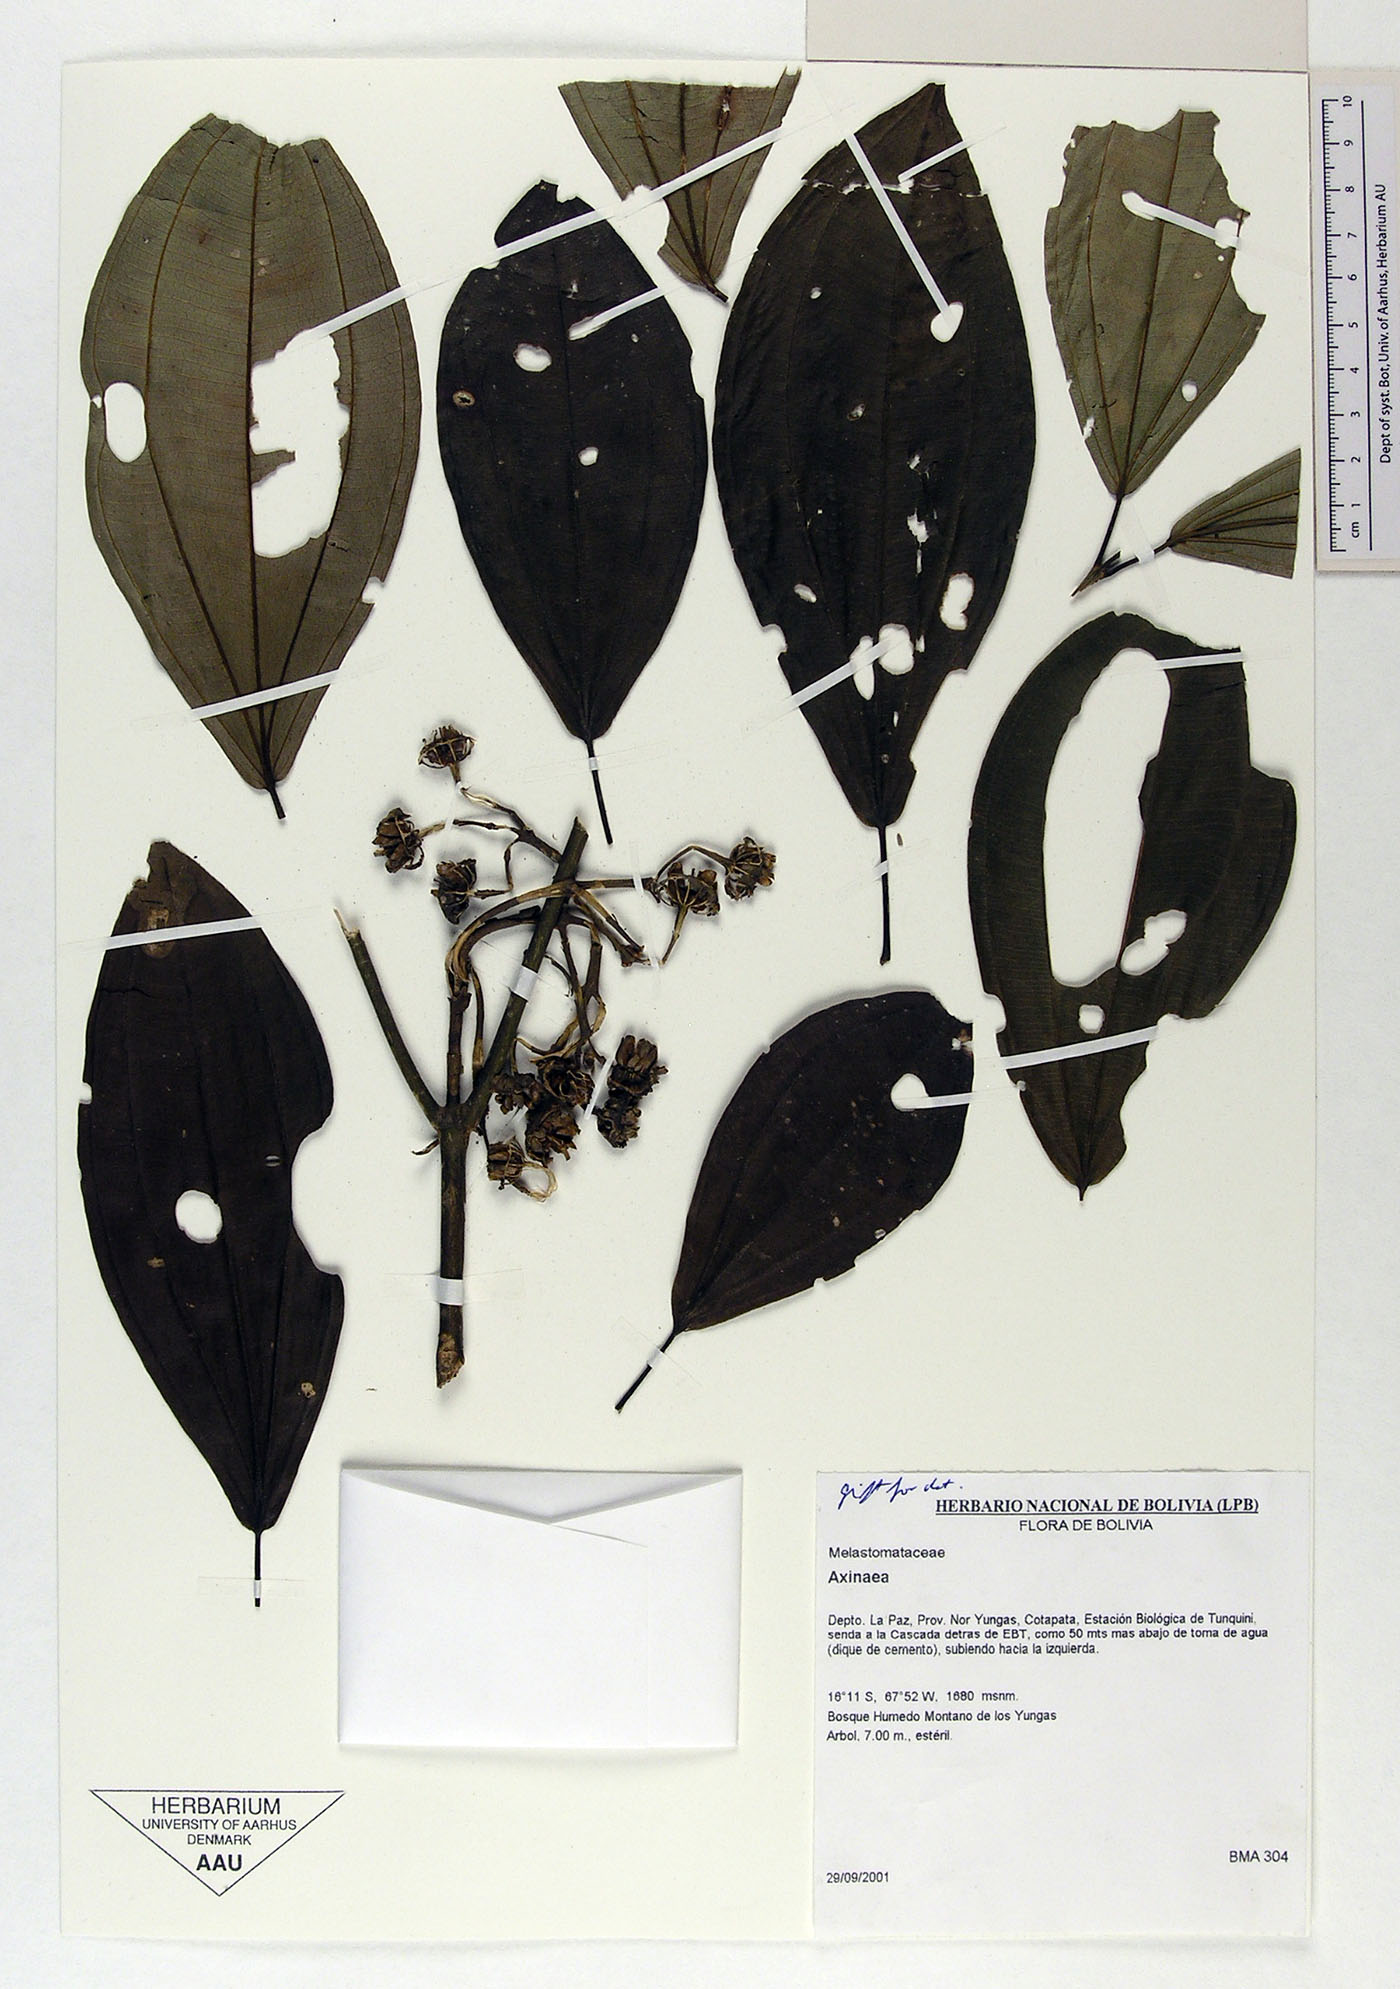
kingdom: Plantae
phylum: Tracheophyta
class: Magnoliopsida
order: Myrtales
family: Melastomataceae
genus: Axinaea
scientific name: Axinaea
